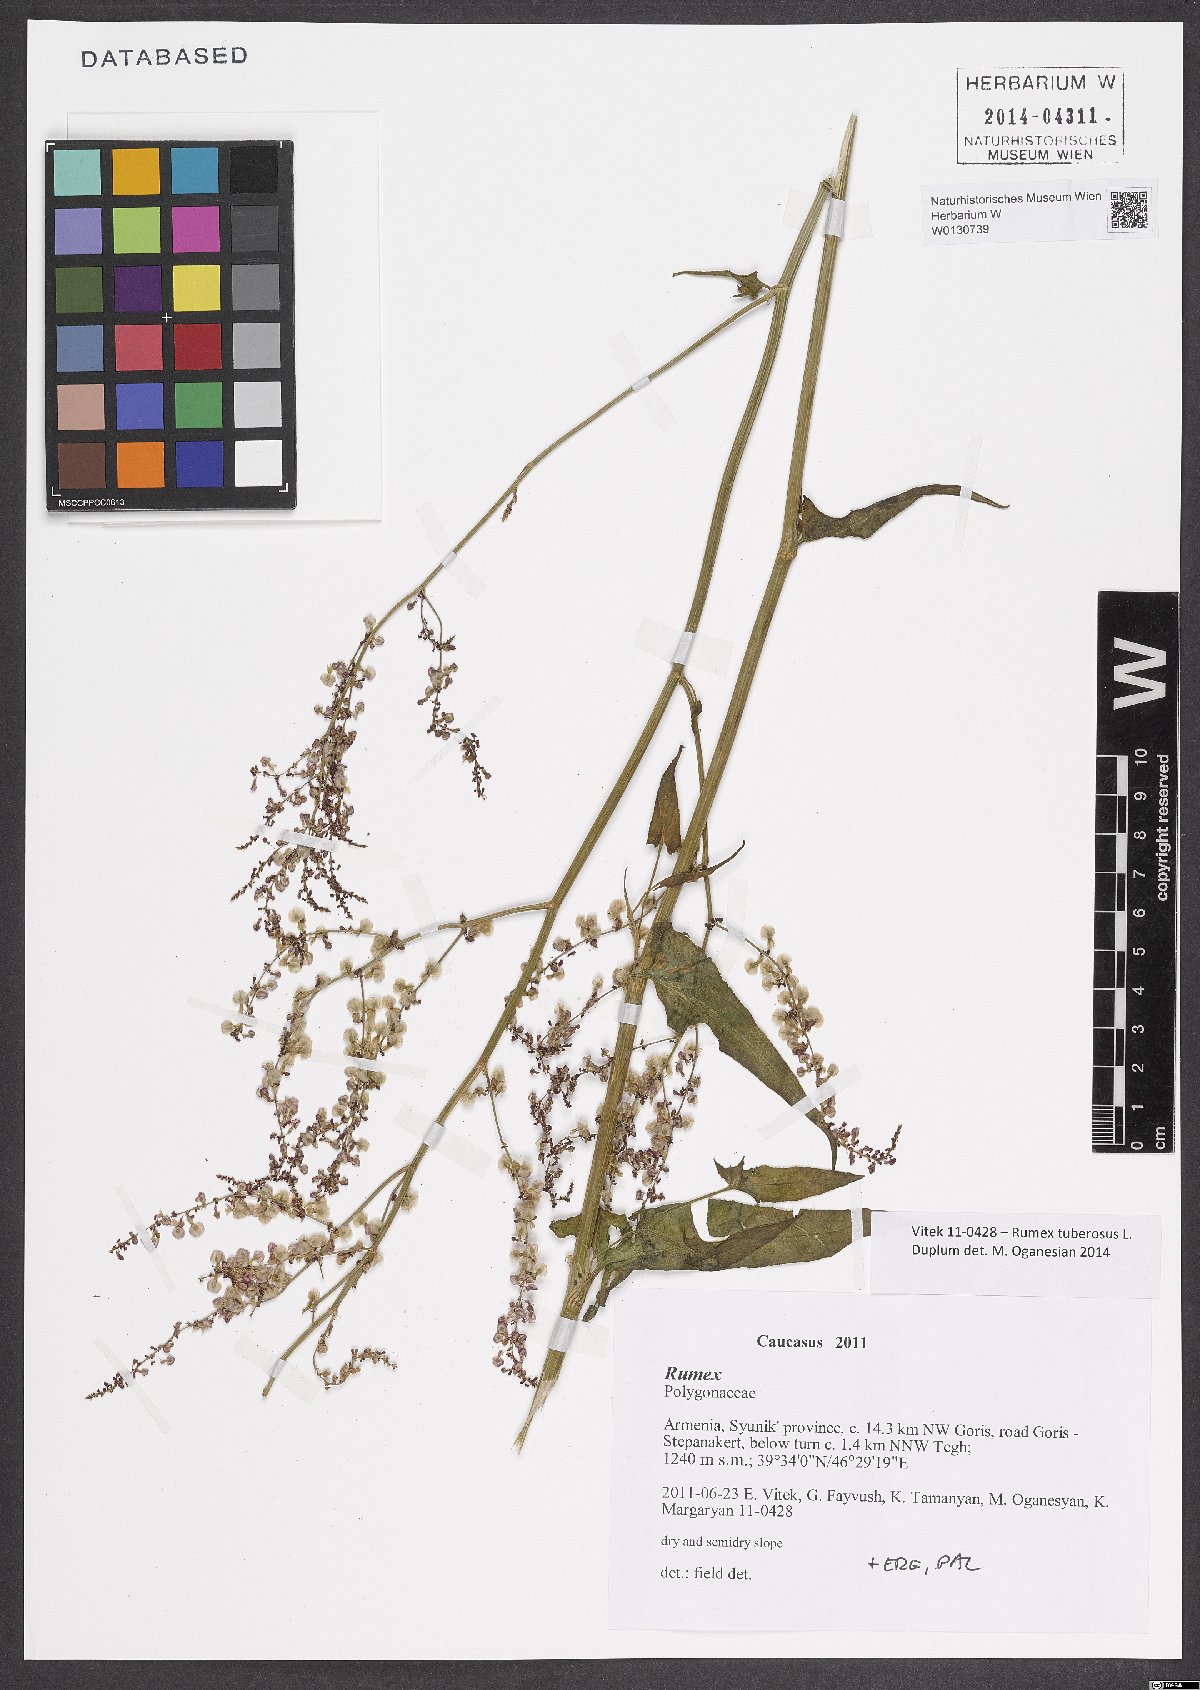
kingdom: Plantae
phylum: Tracheophyta
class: Magnoliopsida
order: Caryophyllales
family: Polygonaceae
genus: Rumex
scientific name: Rumex tuberosus
